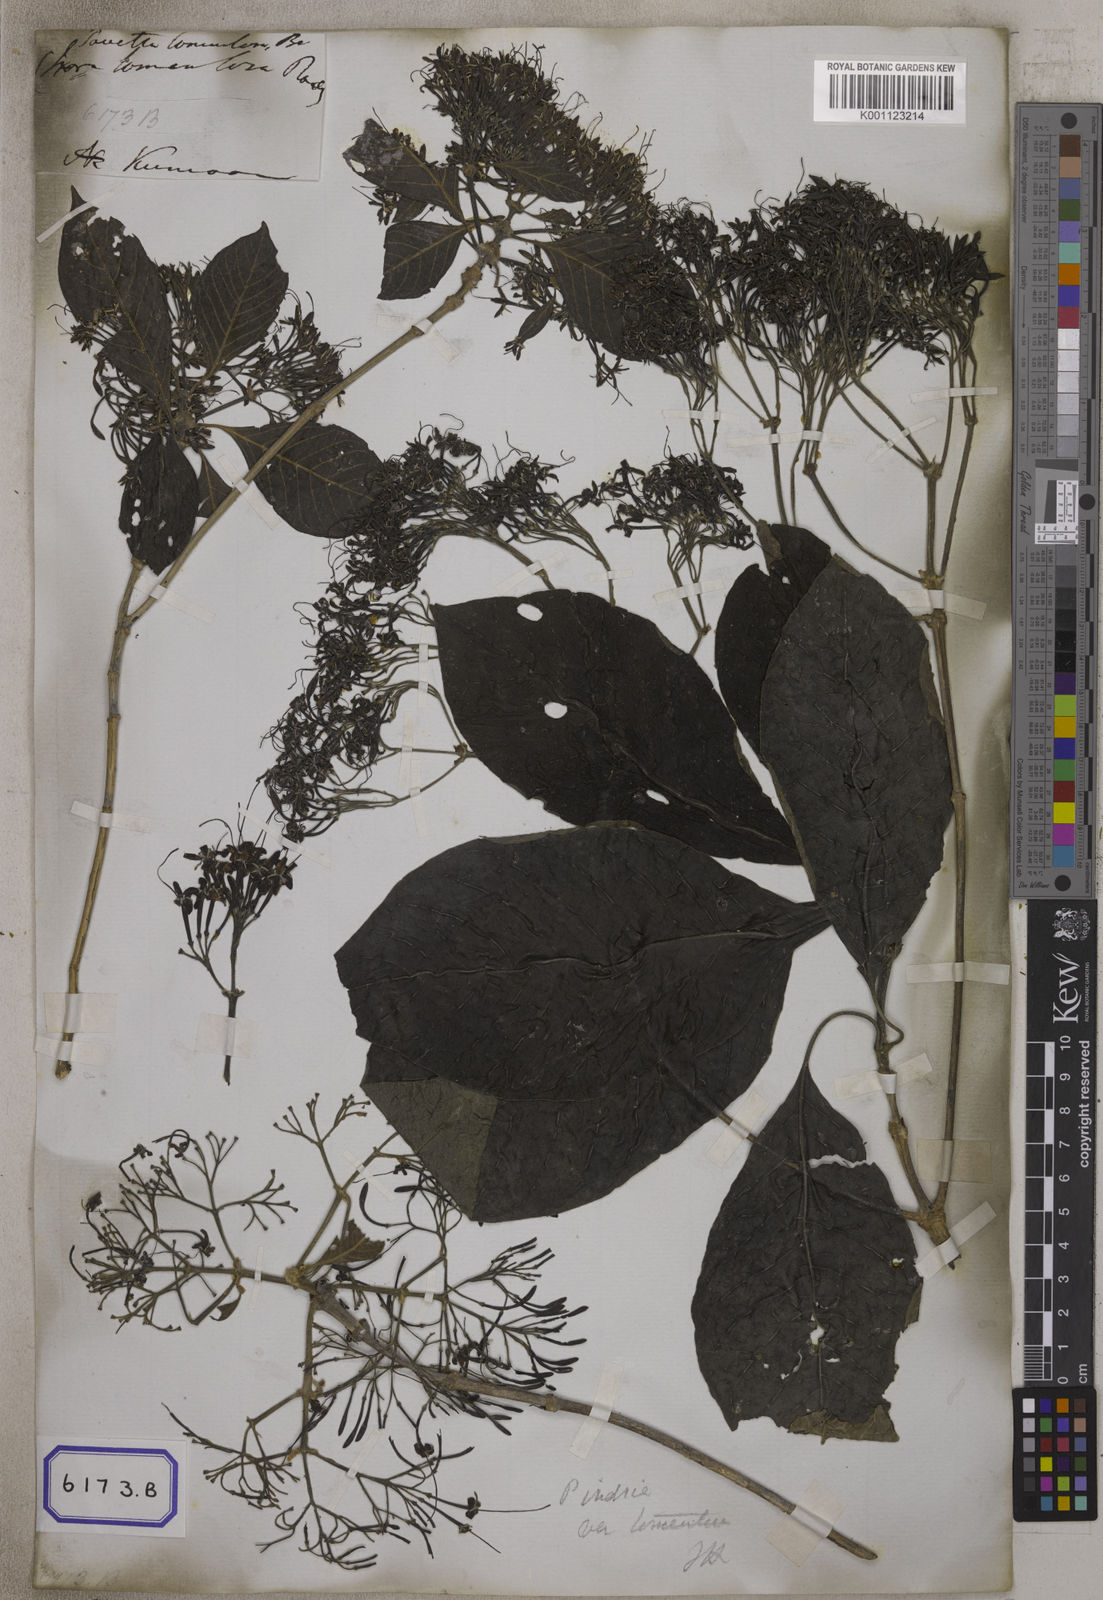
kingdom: Plantae
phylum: Tracheophyta
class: Magnoliopsida
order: Gentianales
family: Rubiaceae
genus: Pavetta
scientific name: Pavetta tomentosa
